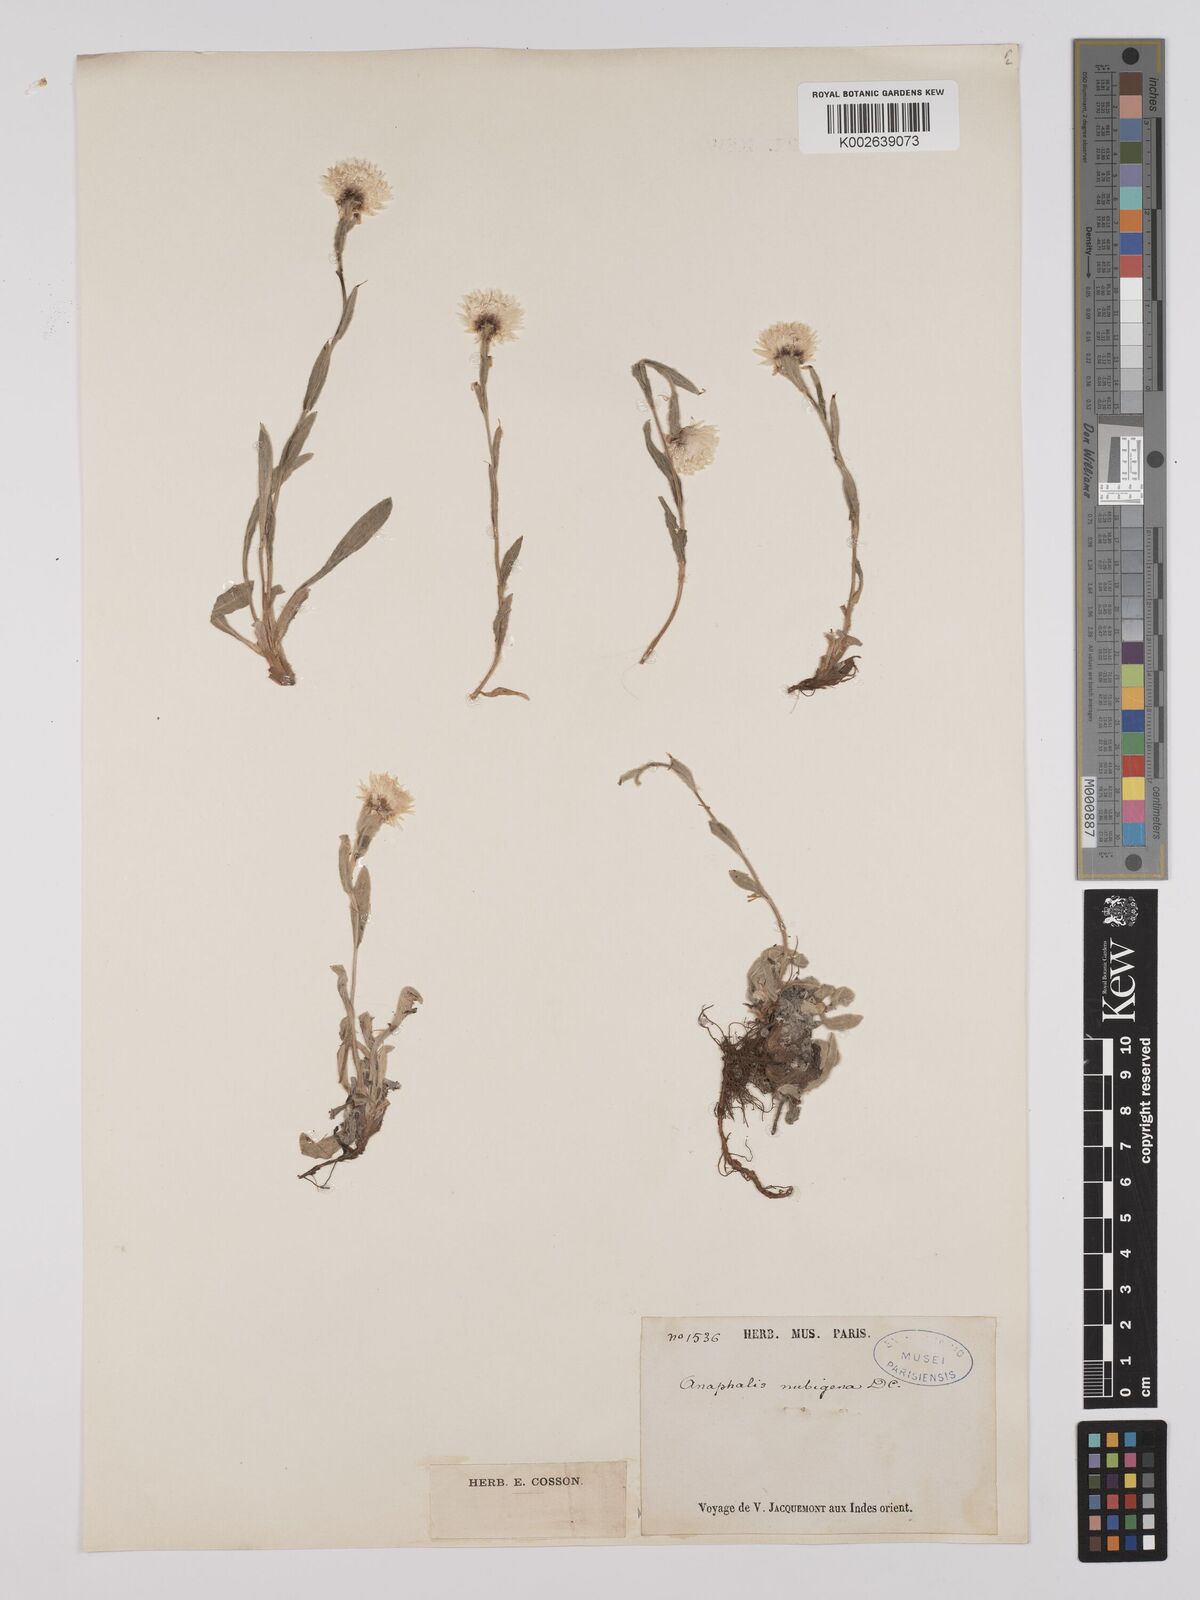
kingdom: Plantae
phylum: Tracheophyta
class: Magnoliopsida
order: Asterales
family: Asteraceae
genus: Anaphalis
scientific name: Anaphalis nepalensis
